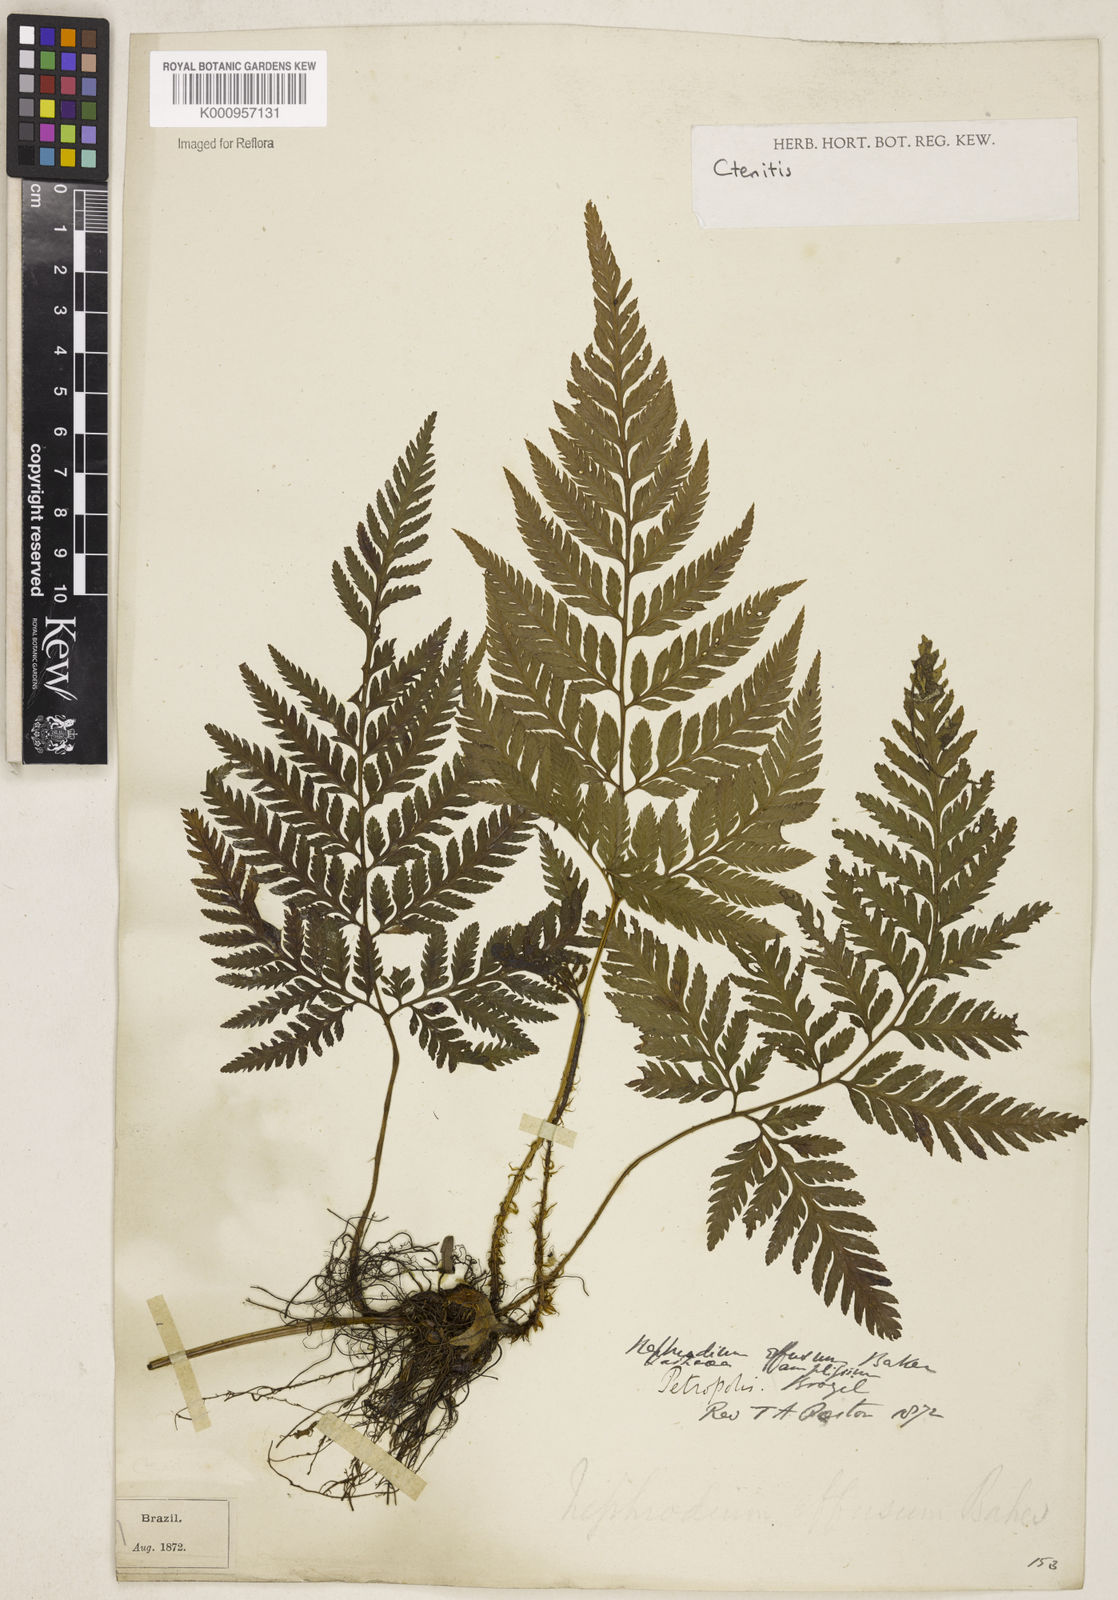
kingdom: Plantae
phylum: Tracheophyta
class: Polypodiopsida
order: Polypodiales
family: Dryopteridaceae
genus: Parapolystichum
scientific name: Parapolystichum effusum
